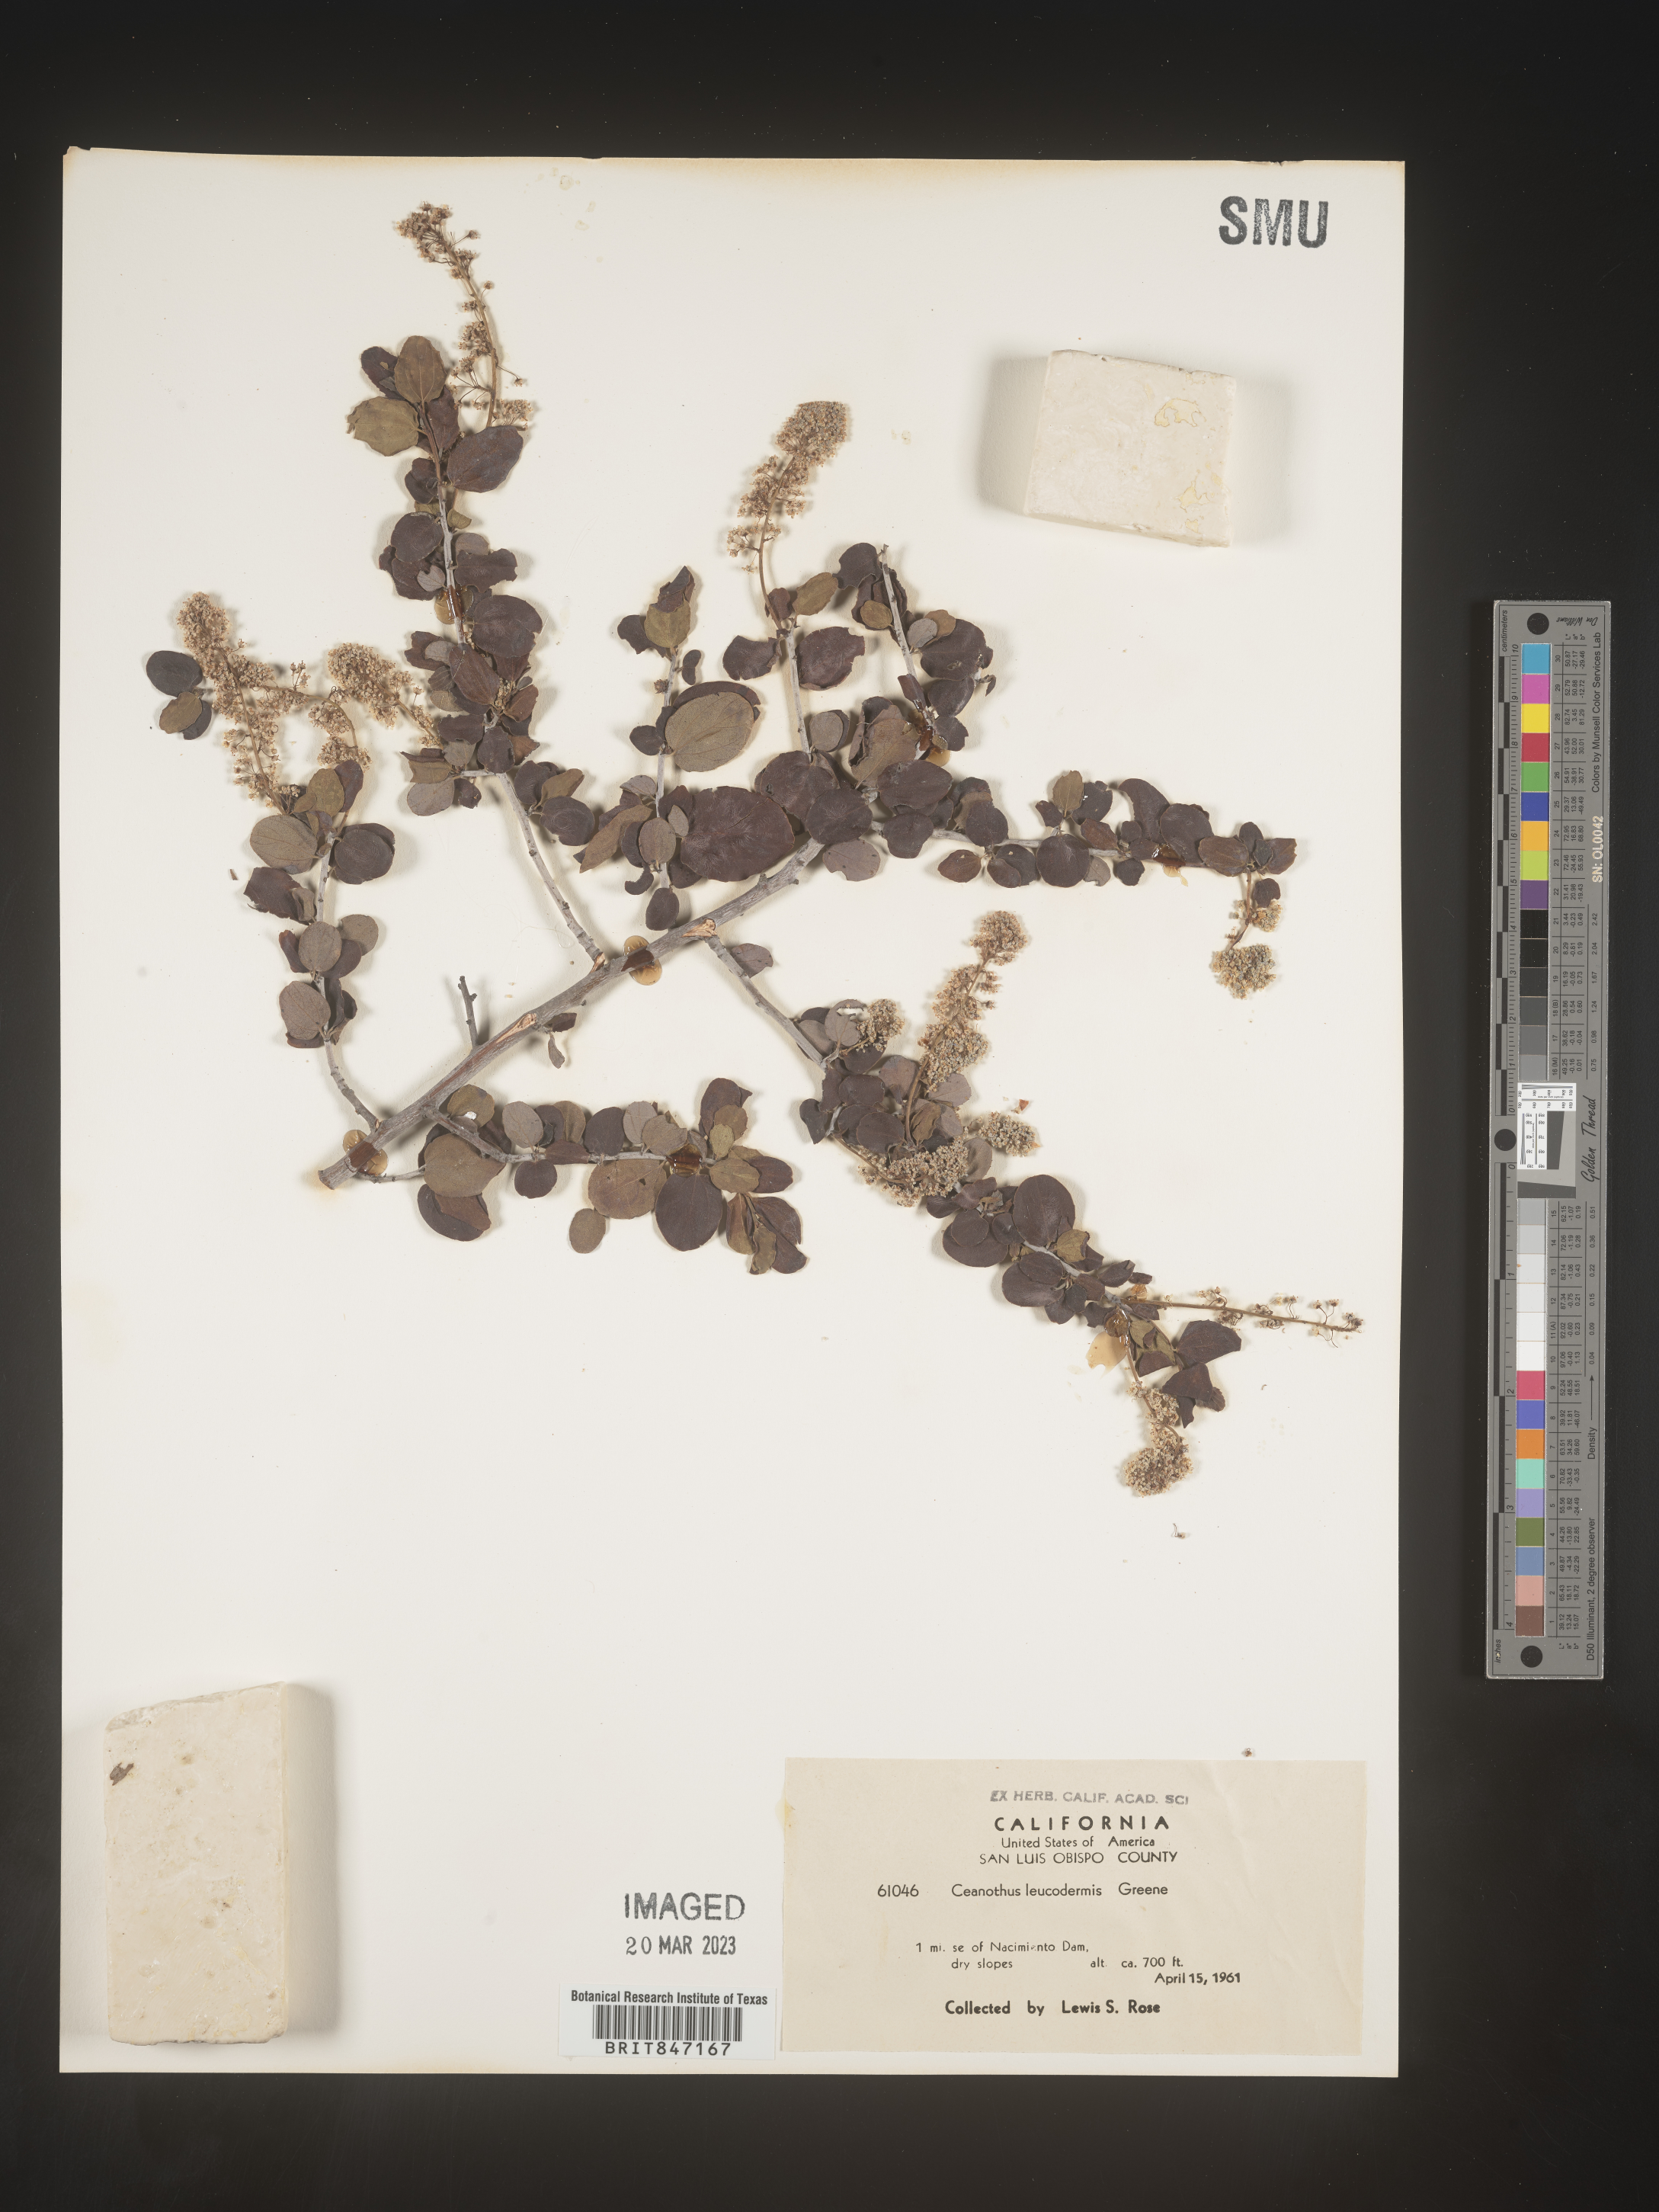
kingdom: Plantae
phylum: Tracheophyta
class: Magnoliopsida
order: Rosales
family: Rhamnaceae
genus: Ceanothus
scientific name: Ceanothus
